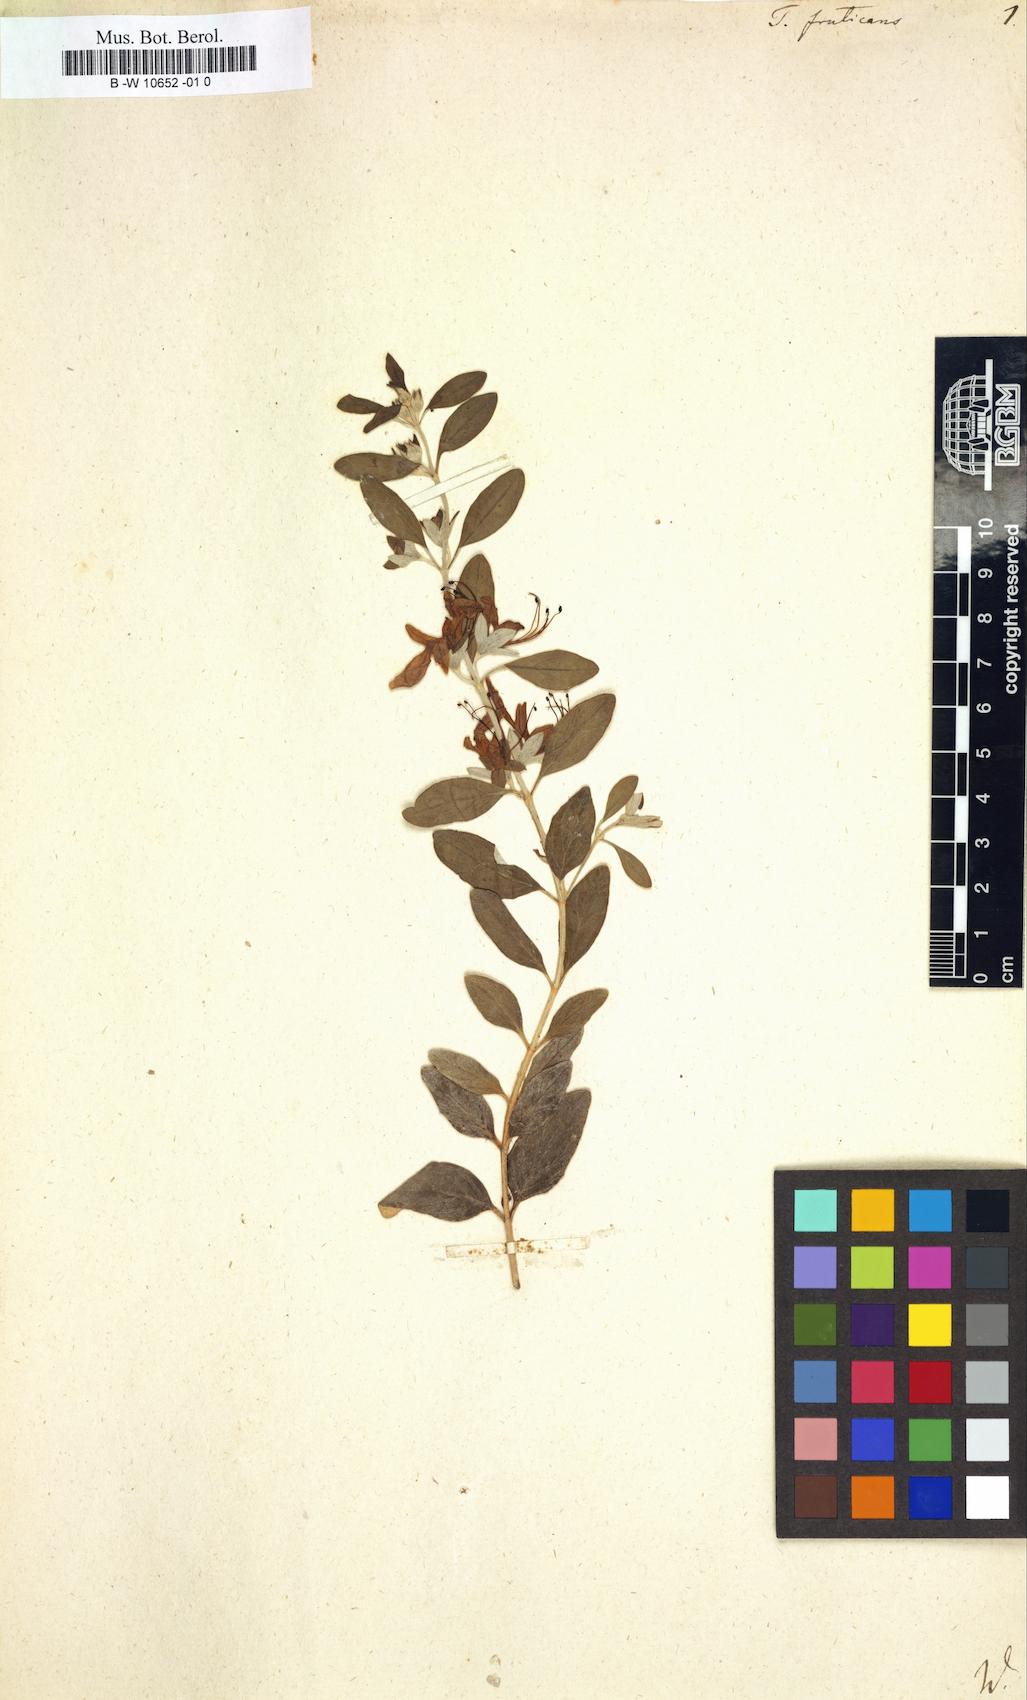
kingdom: Plantae
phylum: Tracheophyta
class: Magnoliopsida
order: Lamiales
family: Lamiaceae
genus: Teucrium
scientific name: Teucrium fruticans
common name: Shrubby germander
